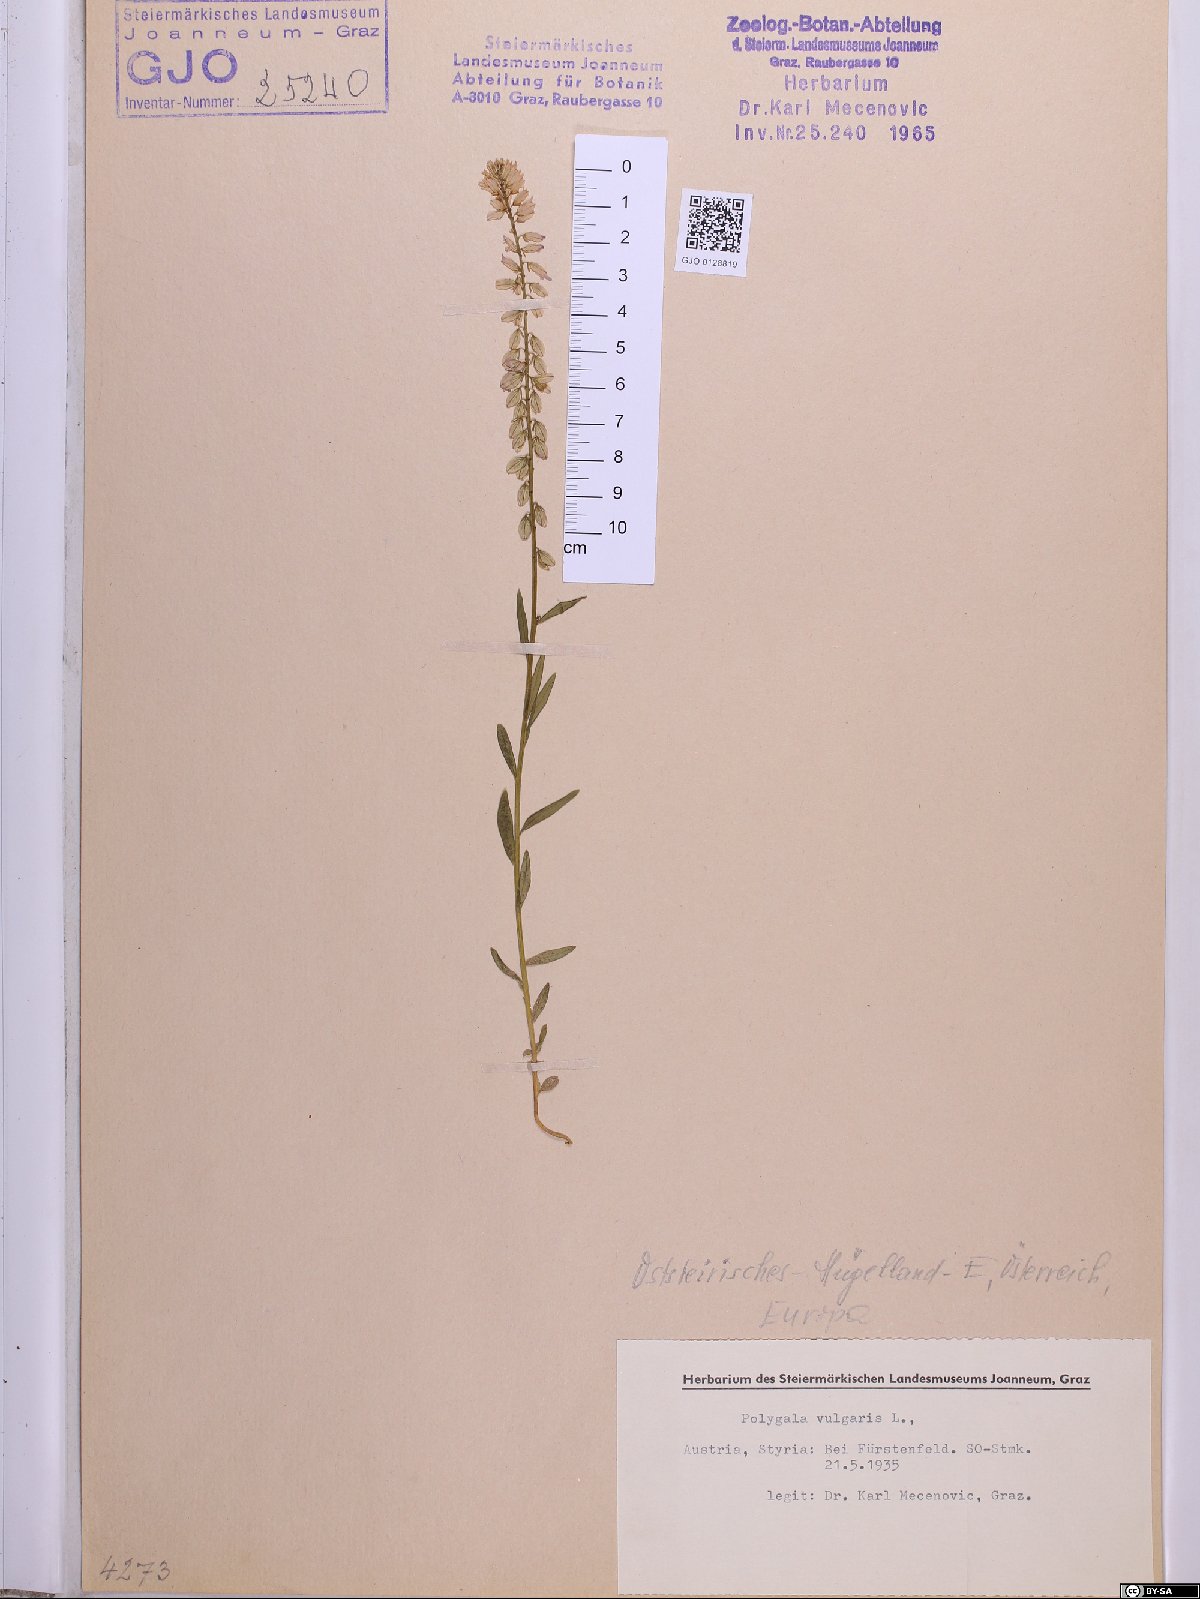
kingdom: Plantae
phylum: Tracheophyta
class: Magnoliopsida
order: Fabales
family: Polygalaceae
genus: Polygala
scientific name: Polygala vulgaris
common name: Common milkwort
